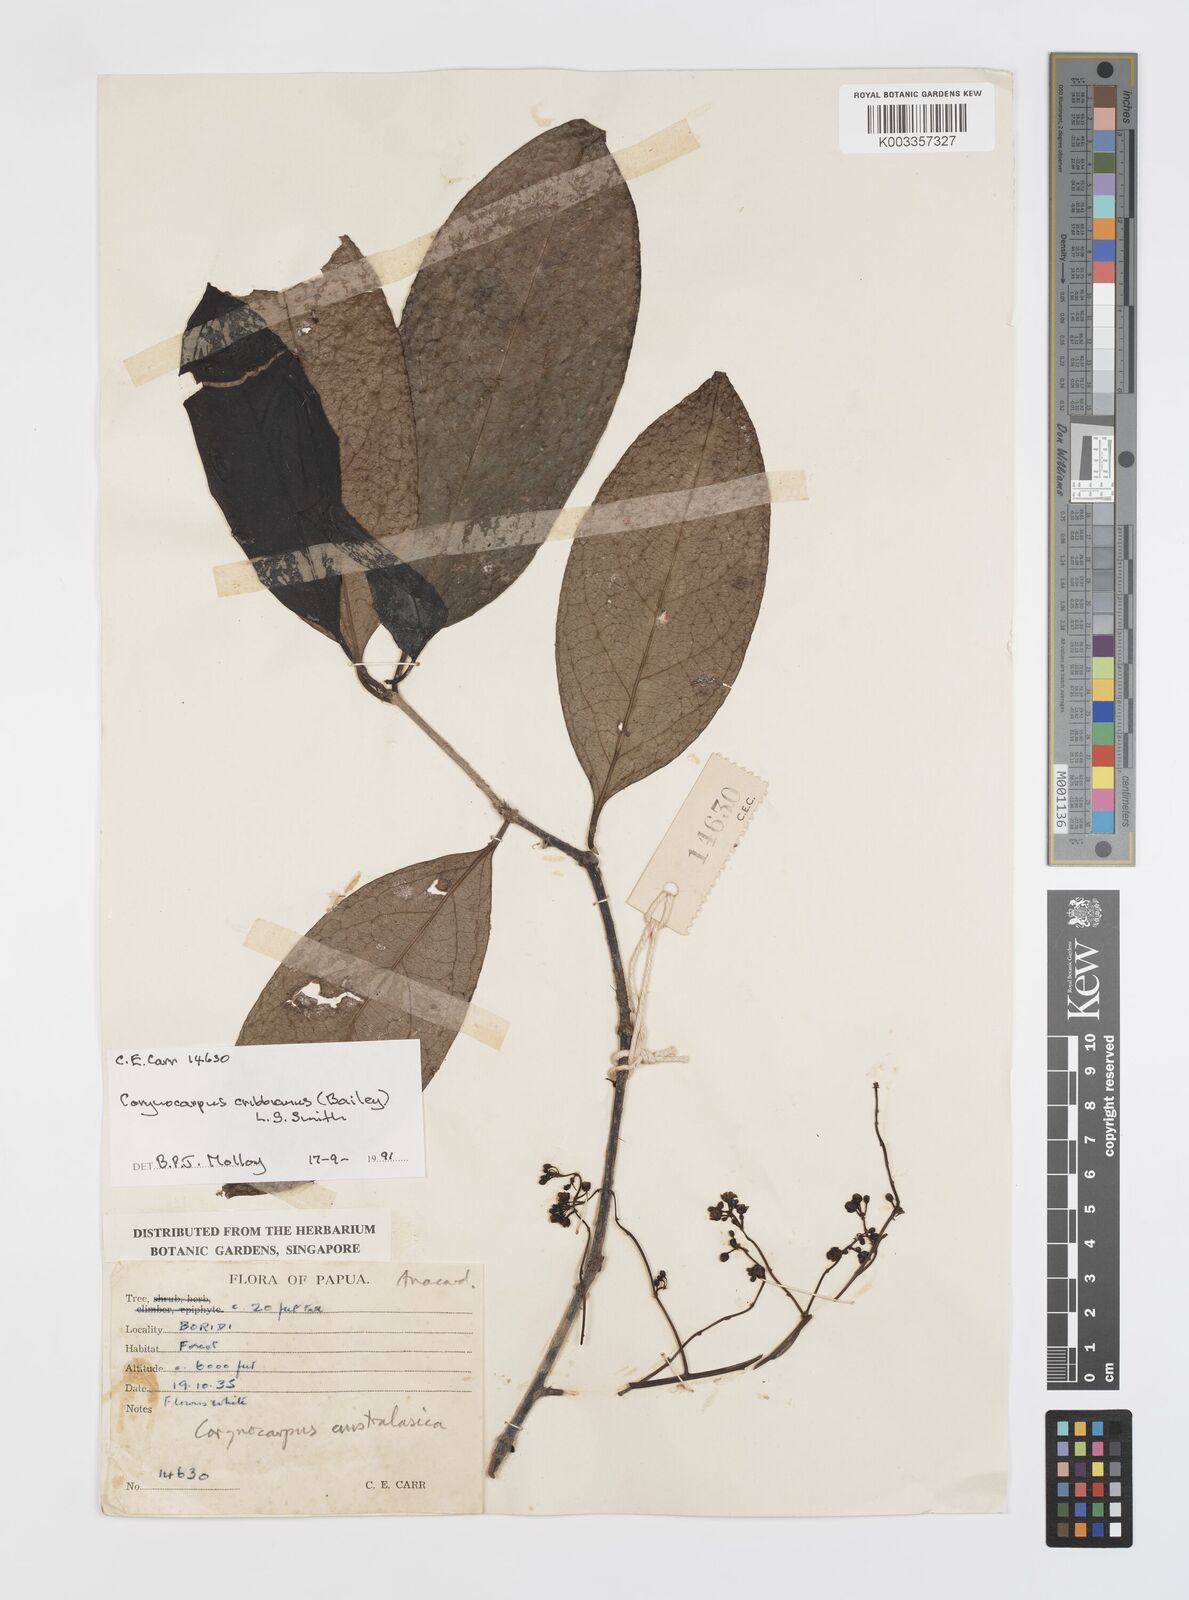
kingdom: Plantae
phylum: Tracheophyta
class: Magnoliopsida
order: Cucurbitales
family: Corynocarpaceae
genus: Corynocarpus
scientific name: Corynocarpus cribbianus
